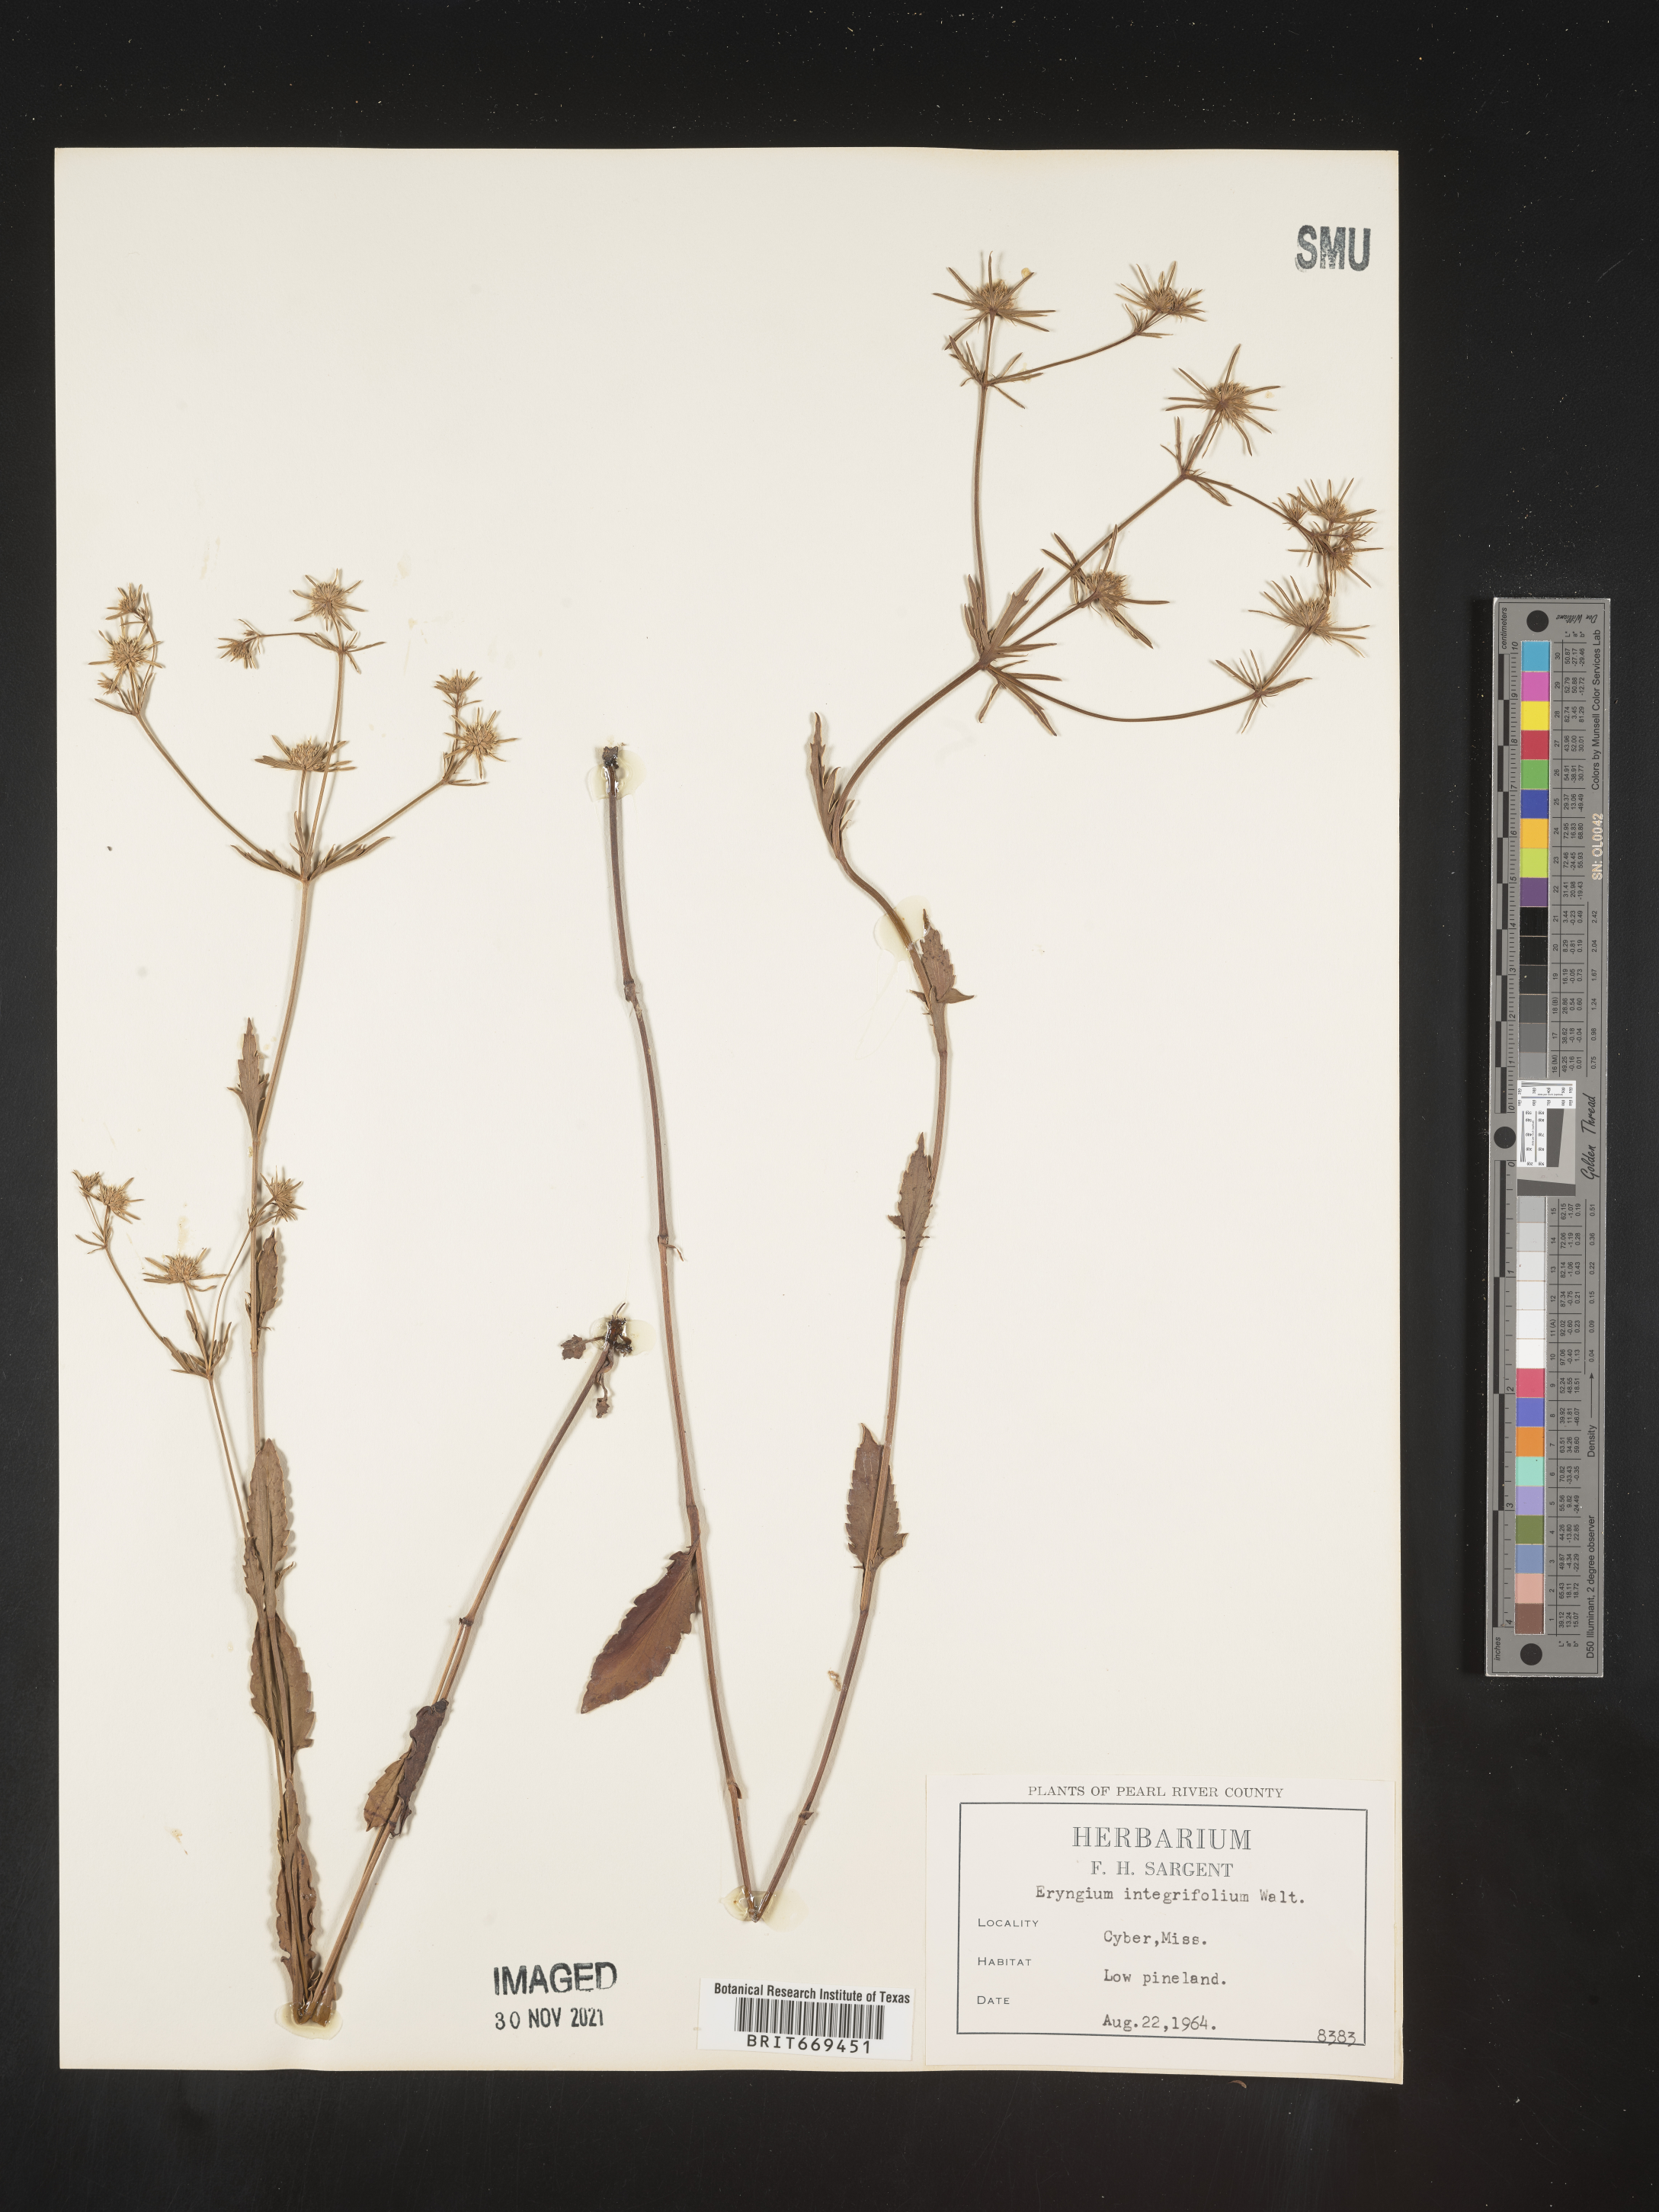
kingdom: Plantae
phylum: Tracheophyta
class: Magnoliopsida
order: Apiales
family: Apiaceae
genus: Eryngium
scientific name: Eryngium integrifolium
